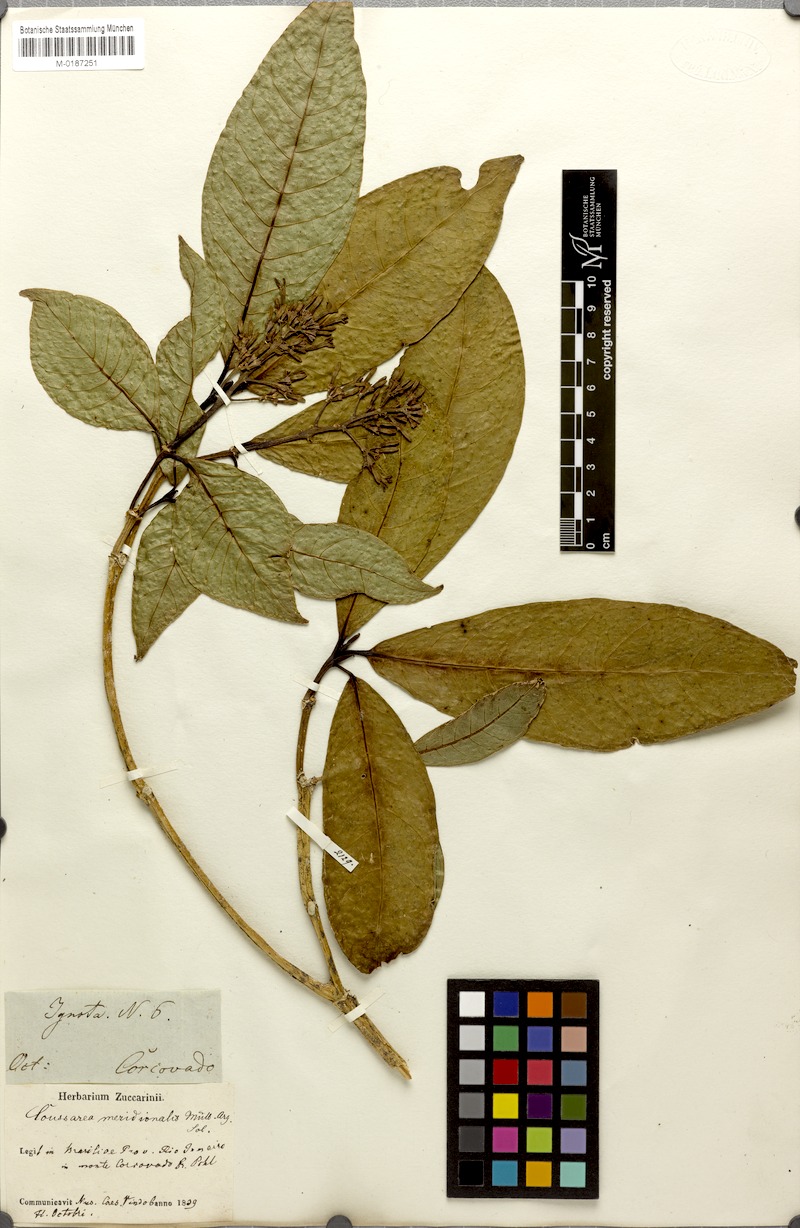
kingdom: Plantae
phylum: Tracheophyta
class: Magnoliopsida
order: Gentianales
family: Rubiaceae
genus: Coussarea
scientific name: Coussarea meridionalis
